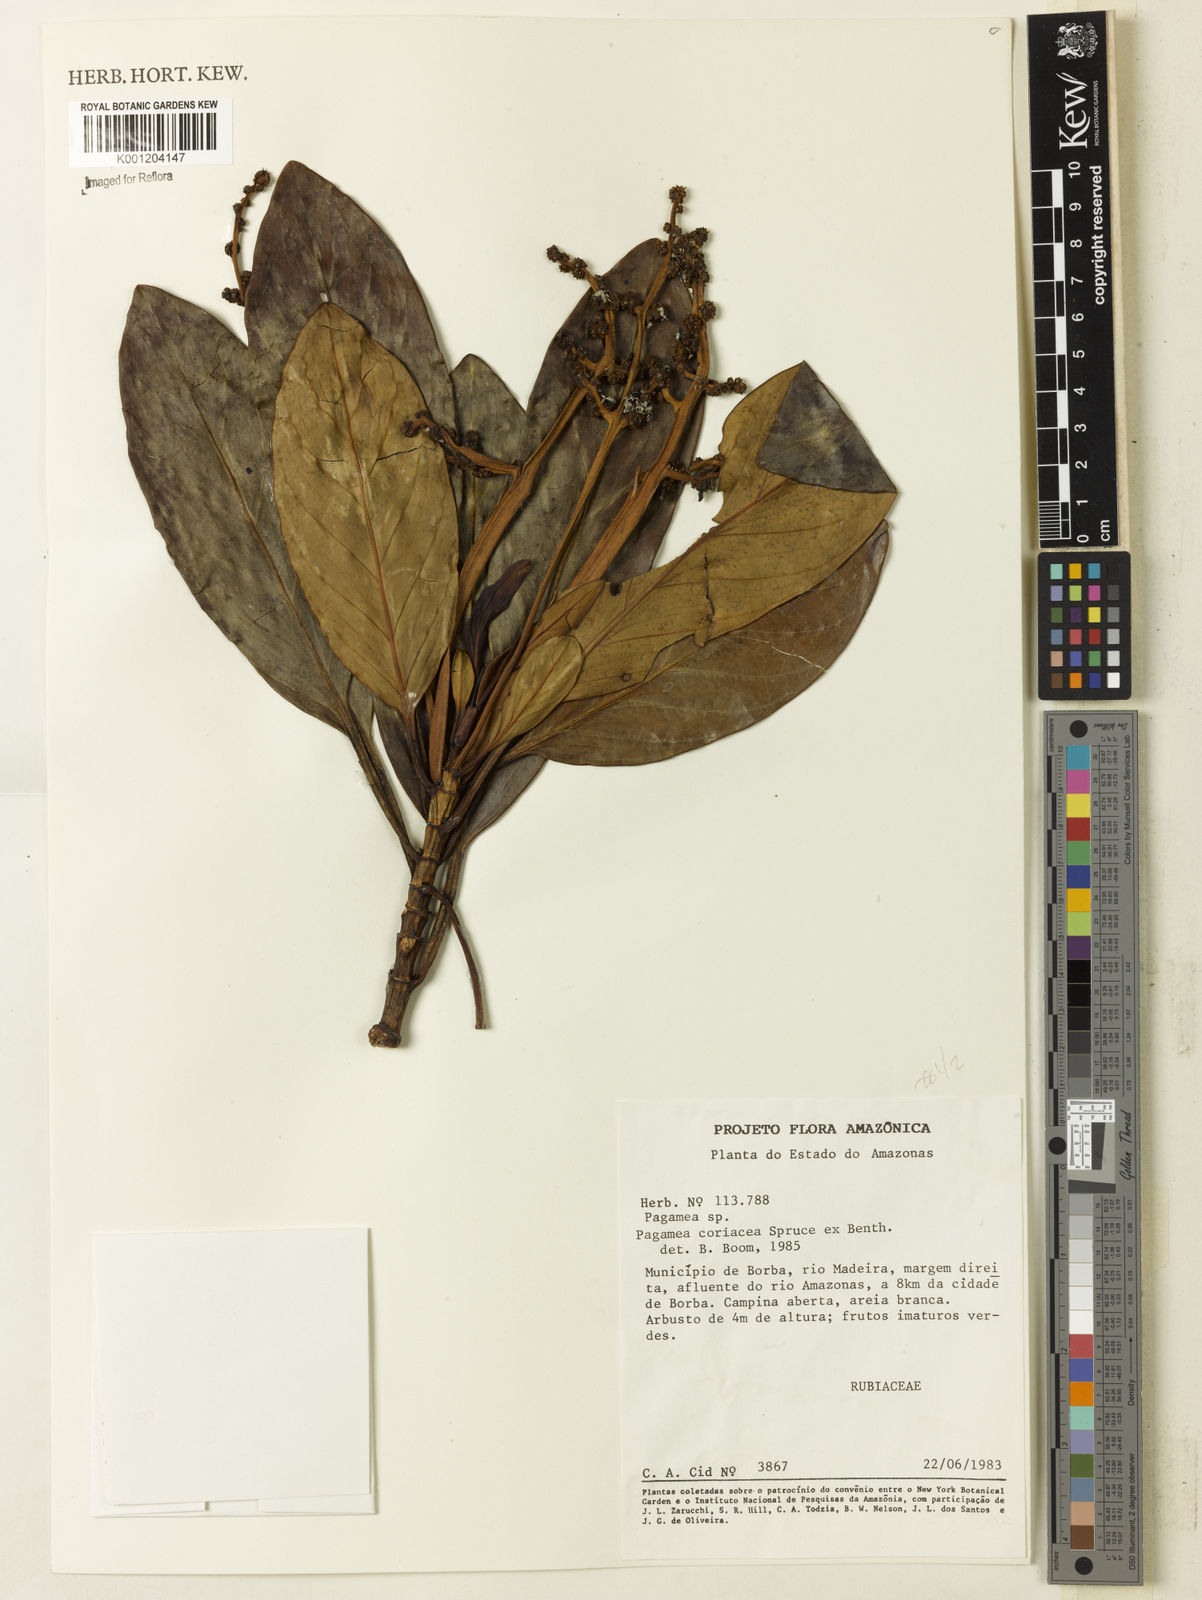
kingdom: Plantae
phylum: Tracheophyta
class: Magnoliopsida
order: Gentianales
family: Rubiaceae
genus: Pagamea
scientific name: Pagamea coriacea
